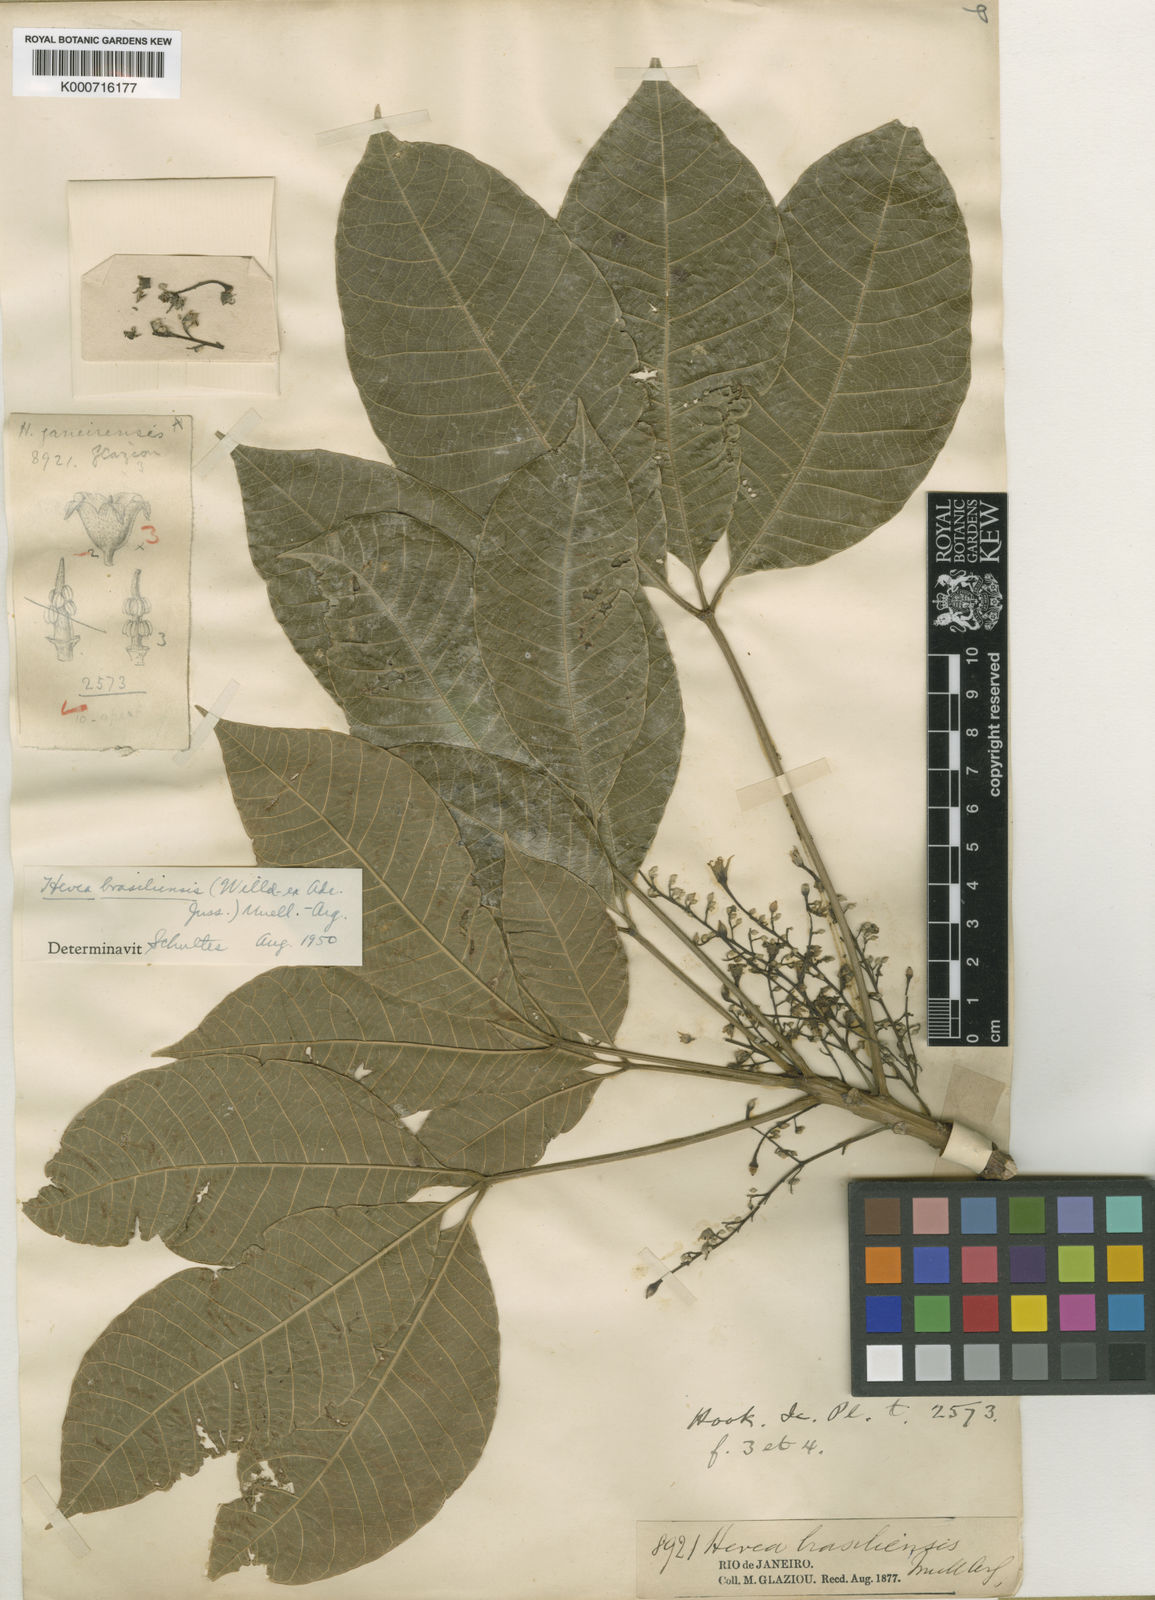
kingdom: Plantae
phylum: Tracheophyta
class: Magnoliopsida
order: Malpighiales
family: Euphorbiaceae
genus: Hevea
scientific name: Hevea
